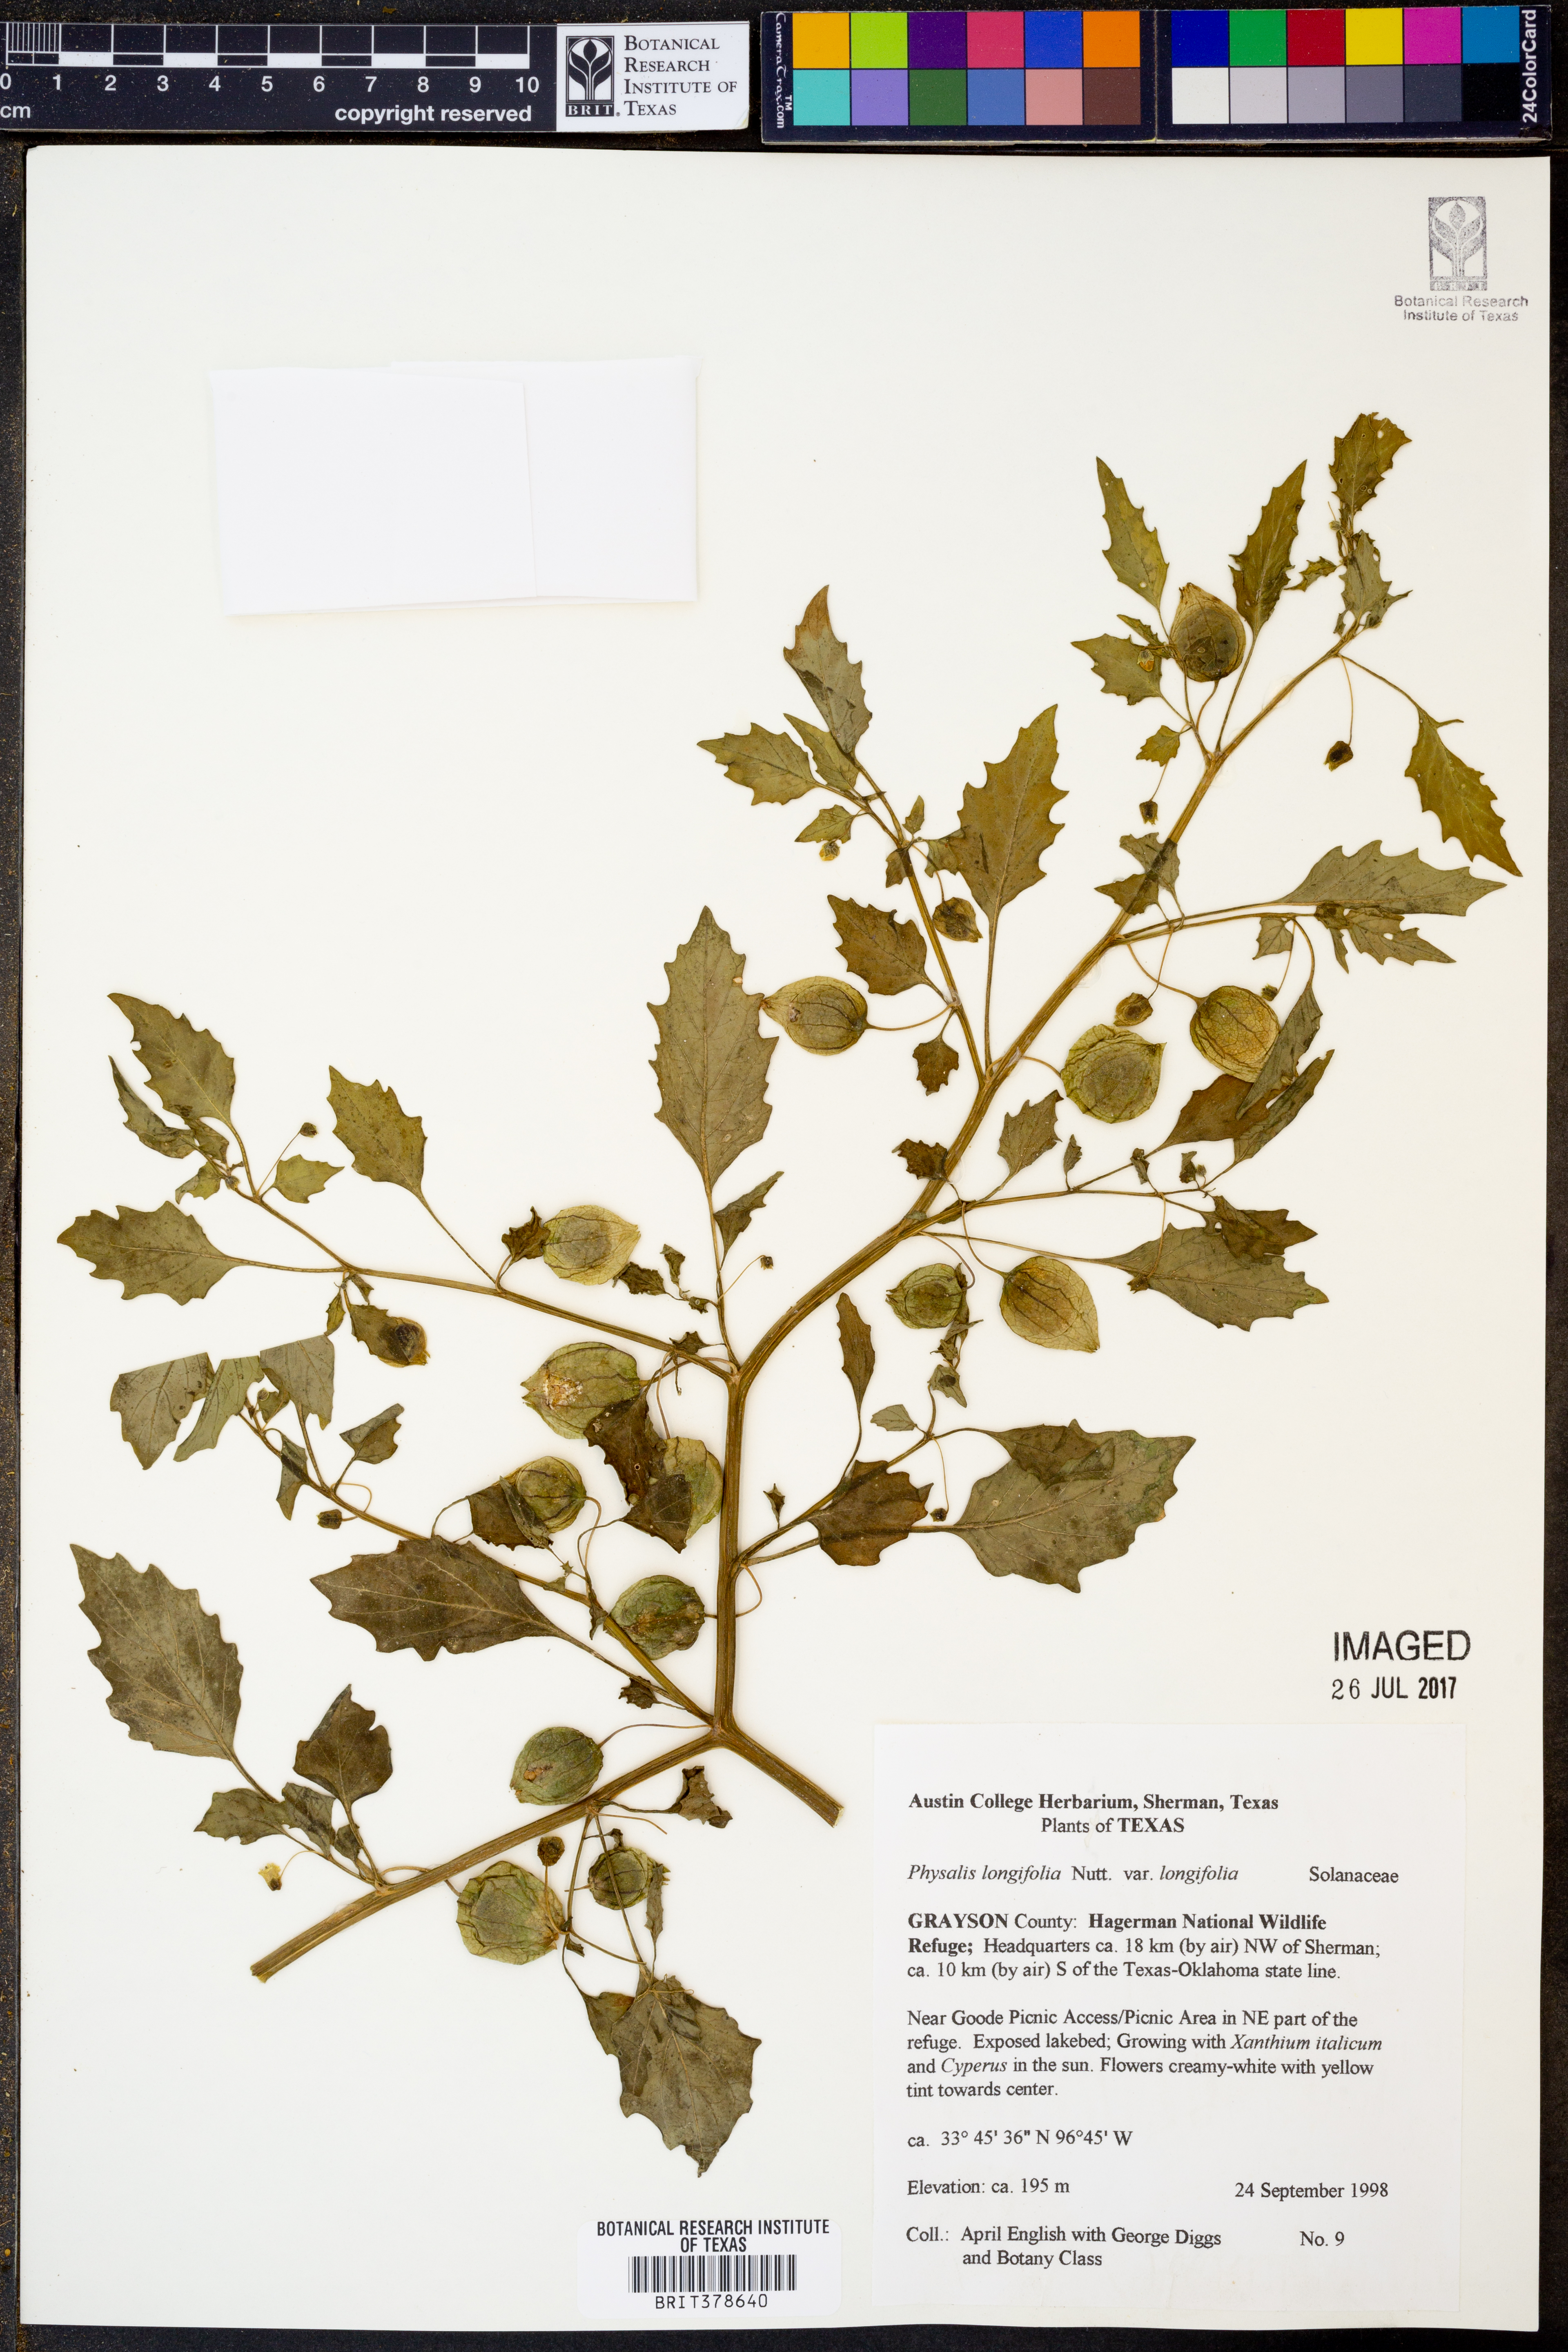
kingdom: Plantae
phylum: Tracheophyta
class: Magnoliopsida
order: Solanales
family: Solanaceae
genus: Physalis
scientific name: Physalis longifolia
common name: Common ground-cherry
